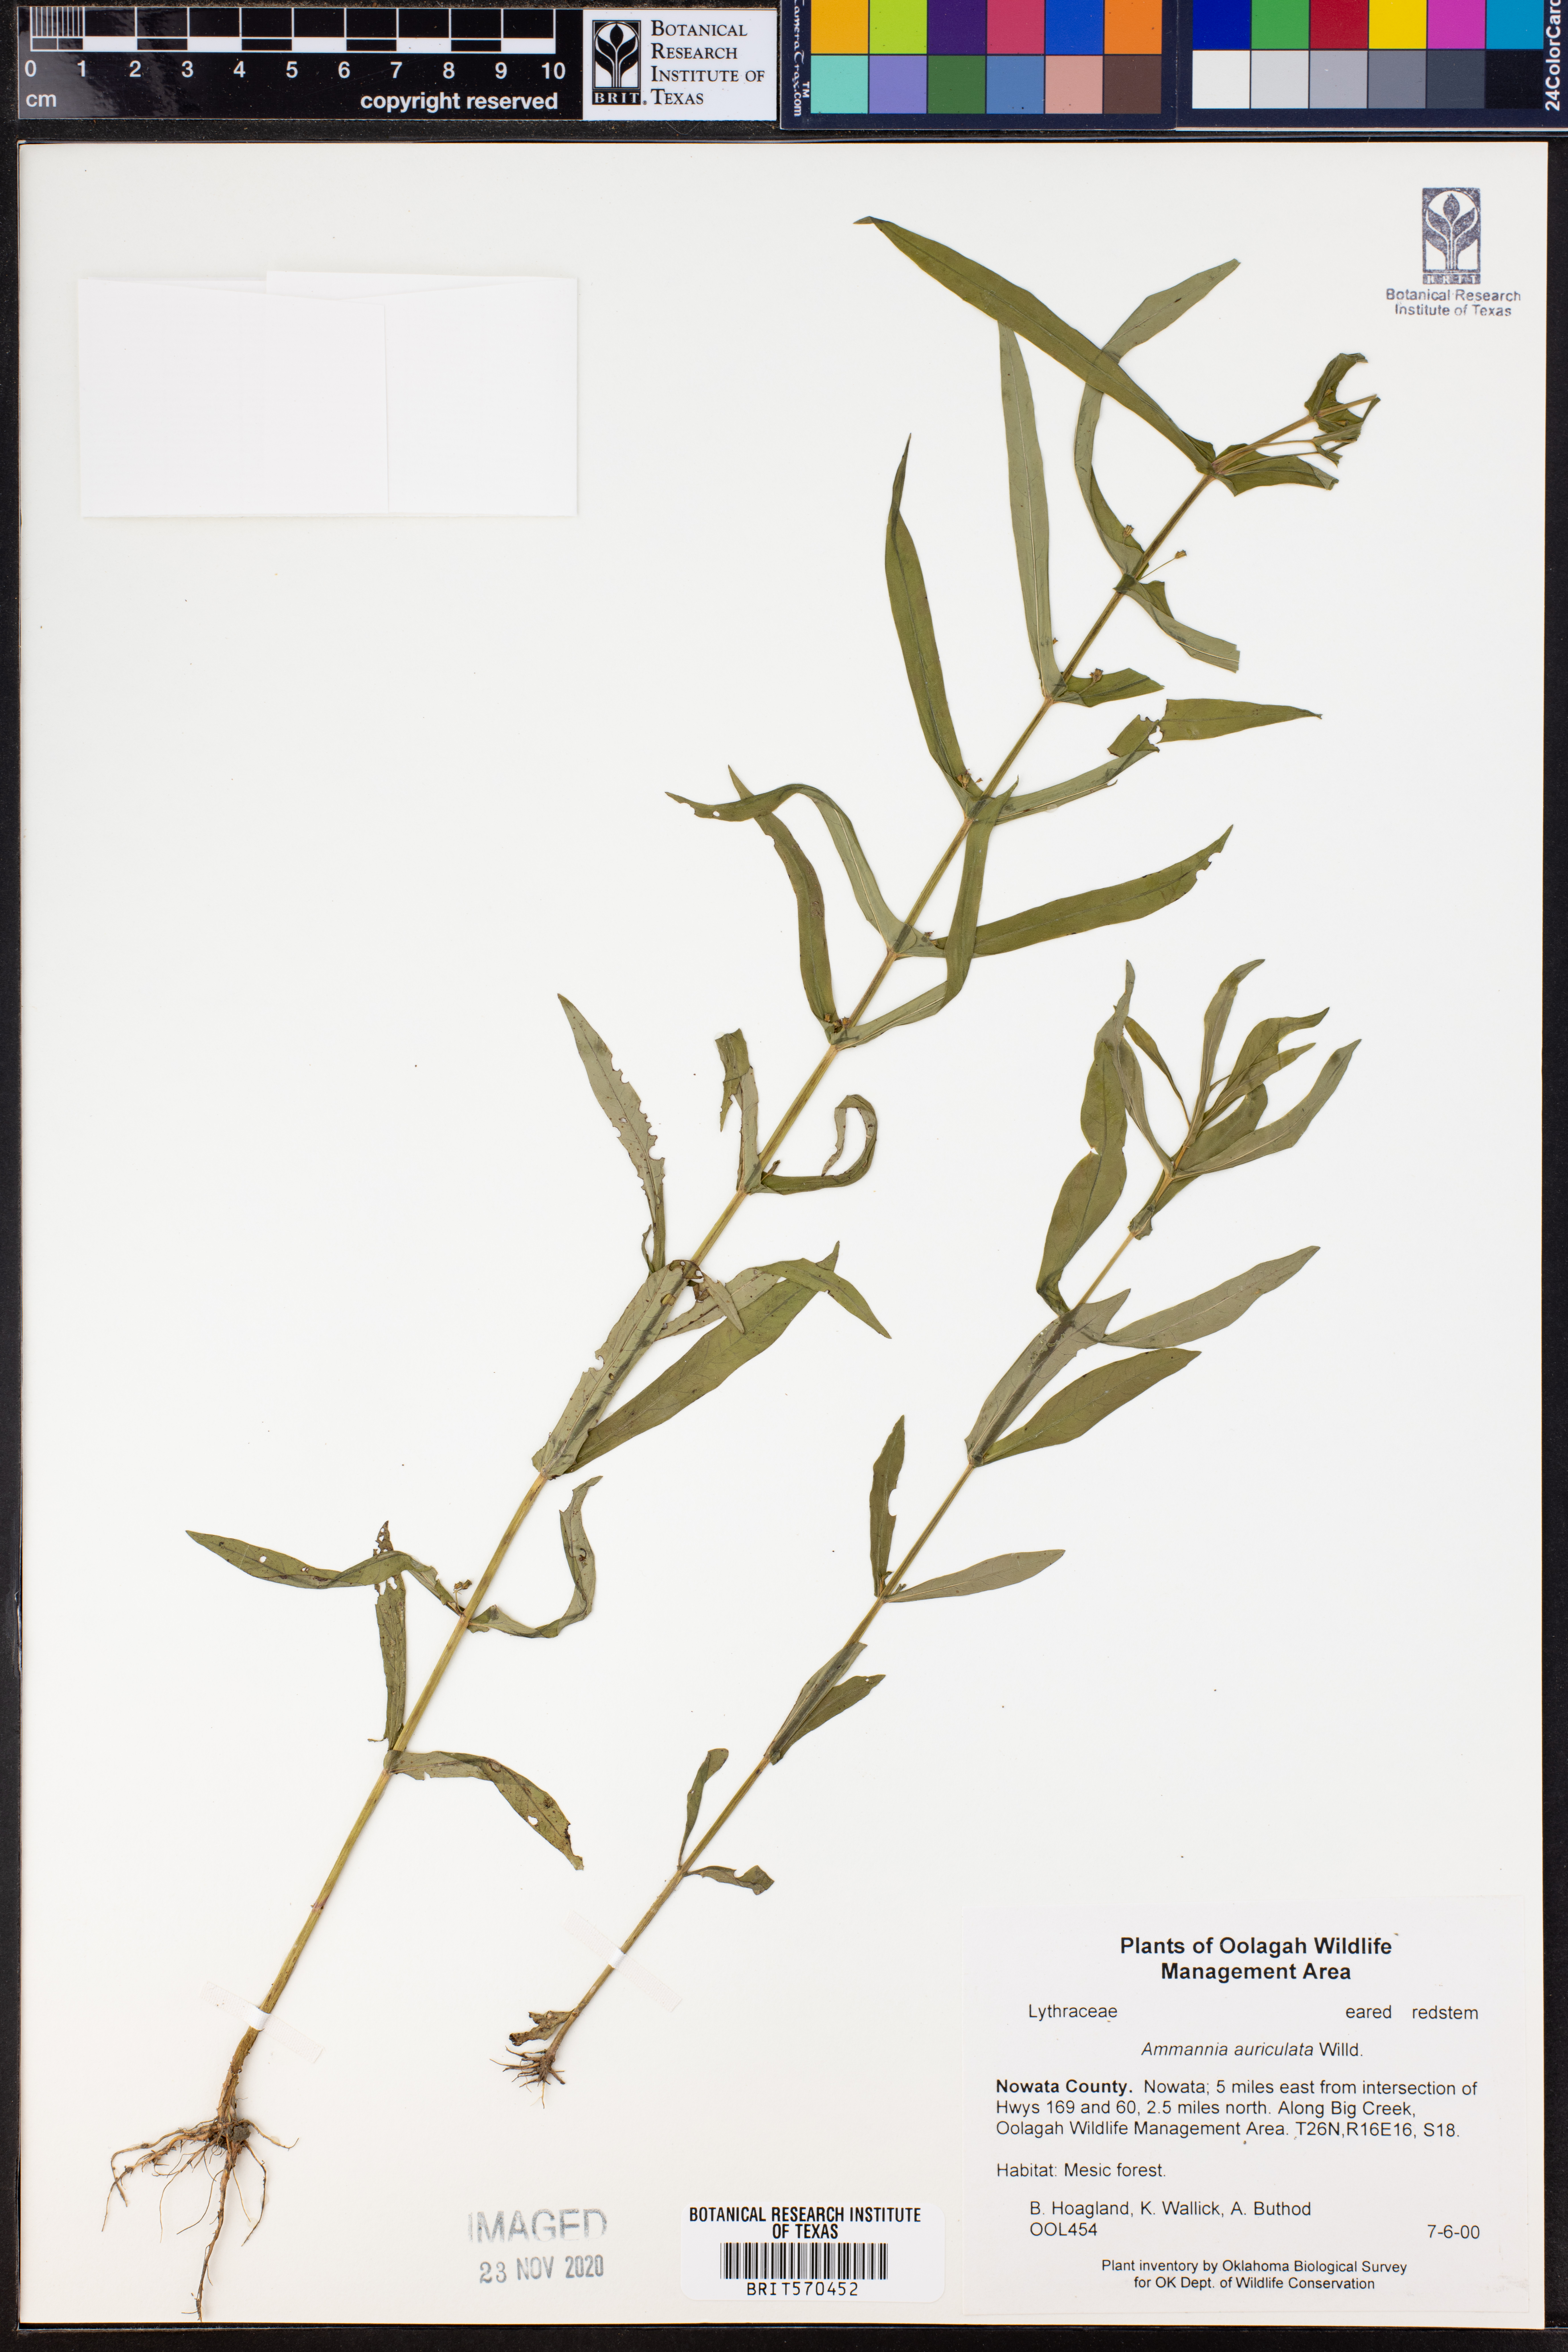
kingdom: Plantae
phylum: Tracheophyta
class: Magnoliopsida
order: Myrtales
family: Lythraceae
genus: Ammannia
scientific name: Ammannia auriculata
